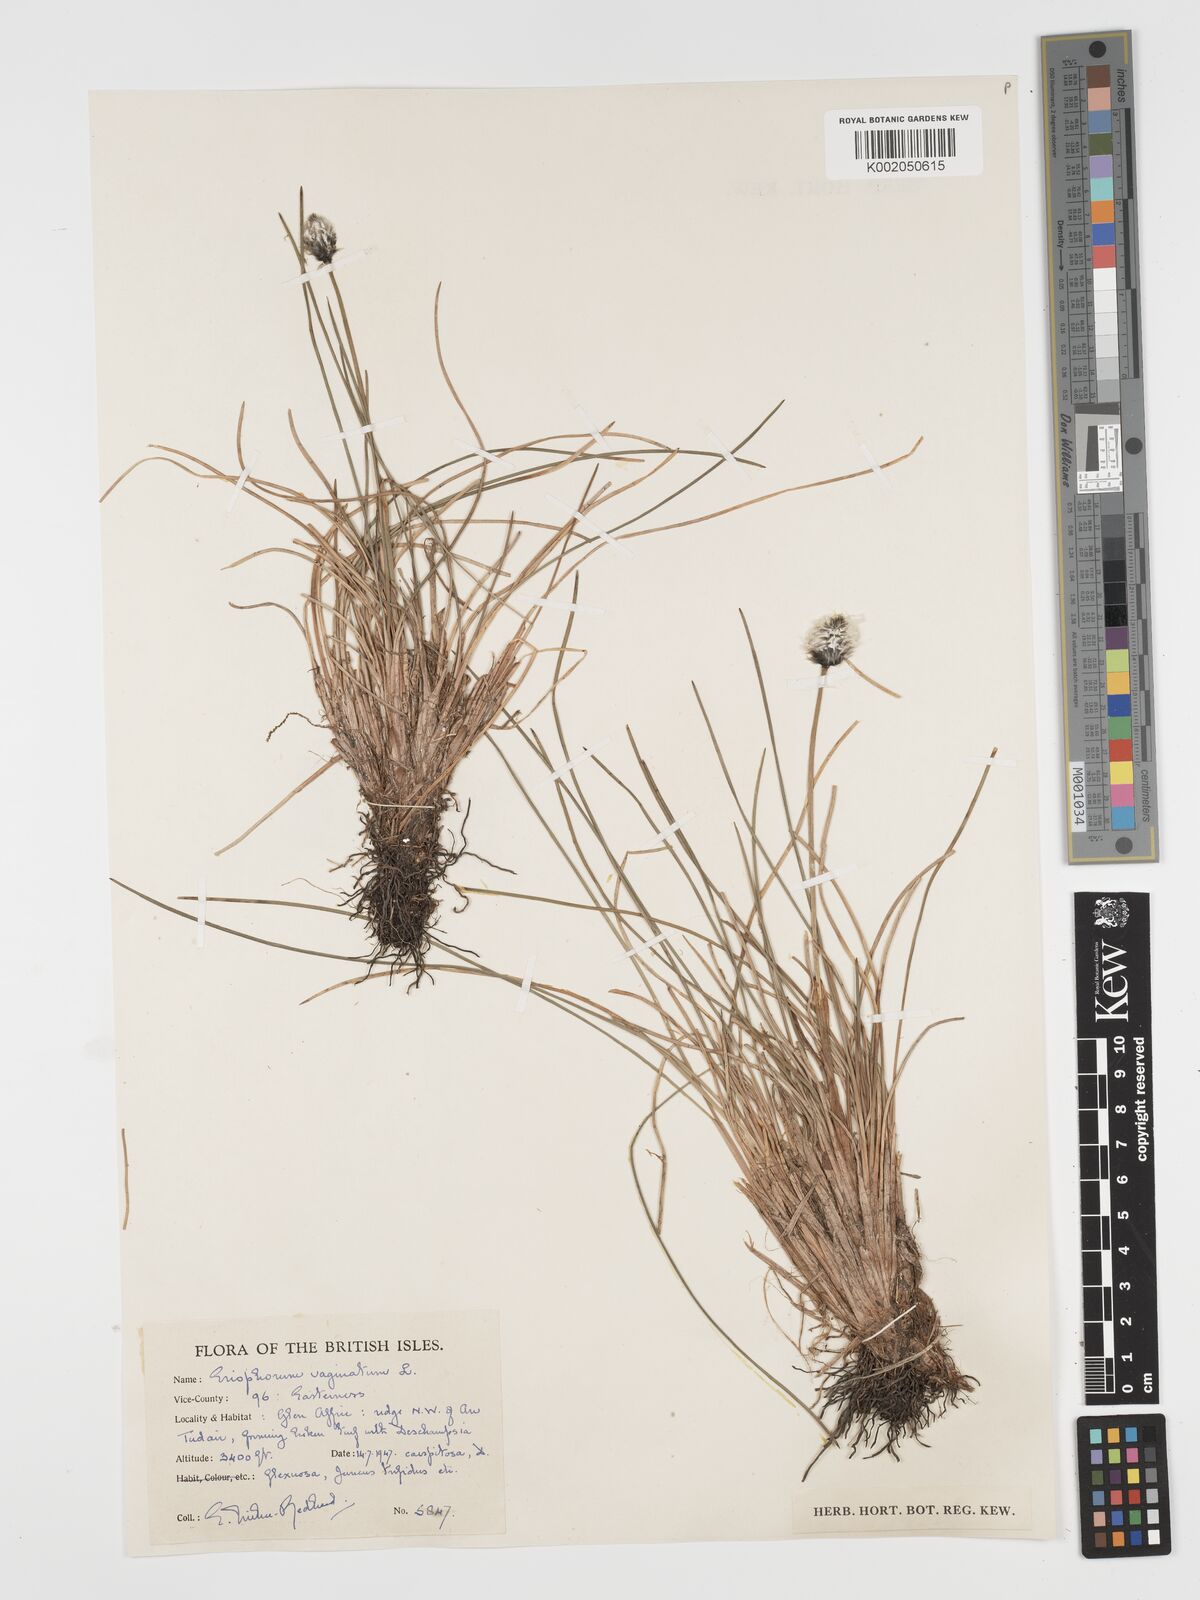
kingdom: Plantae
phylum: Tracheophyta
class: Liliopsida
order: Poales
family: Cyperaceae
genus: Eriophorum
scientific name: Eriophorum vaginatum
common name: Hare's-tail cottongrass
